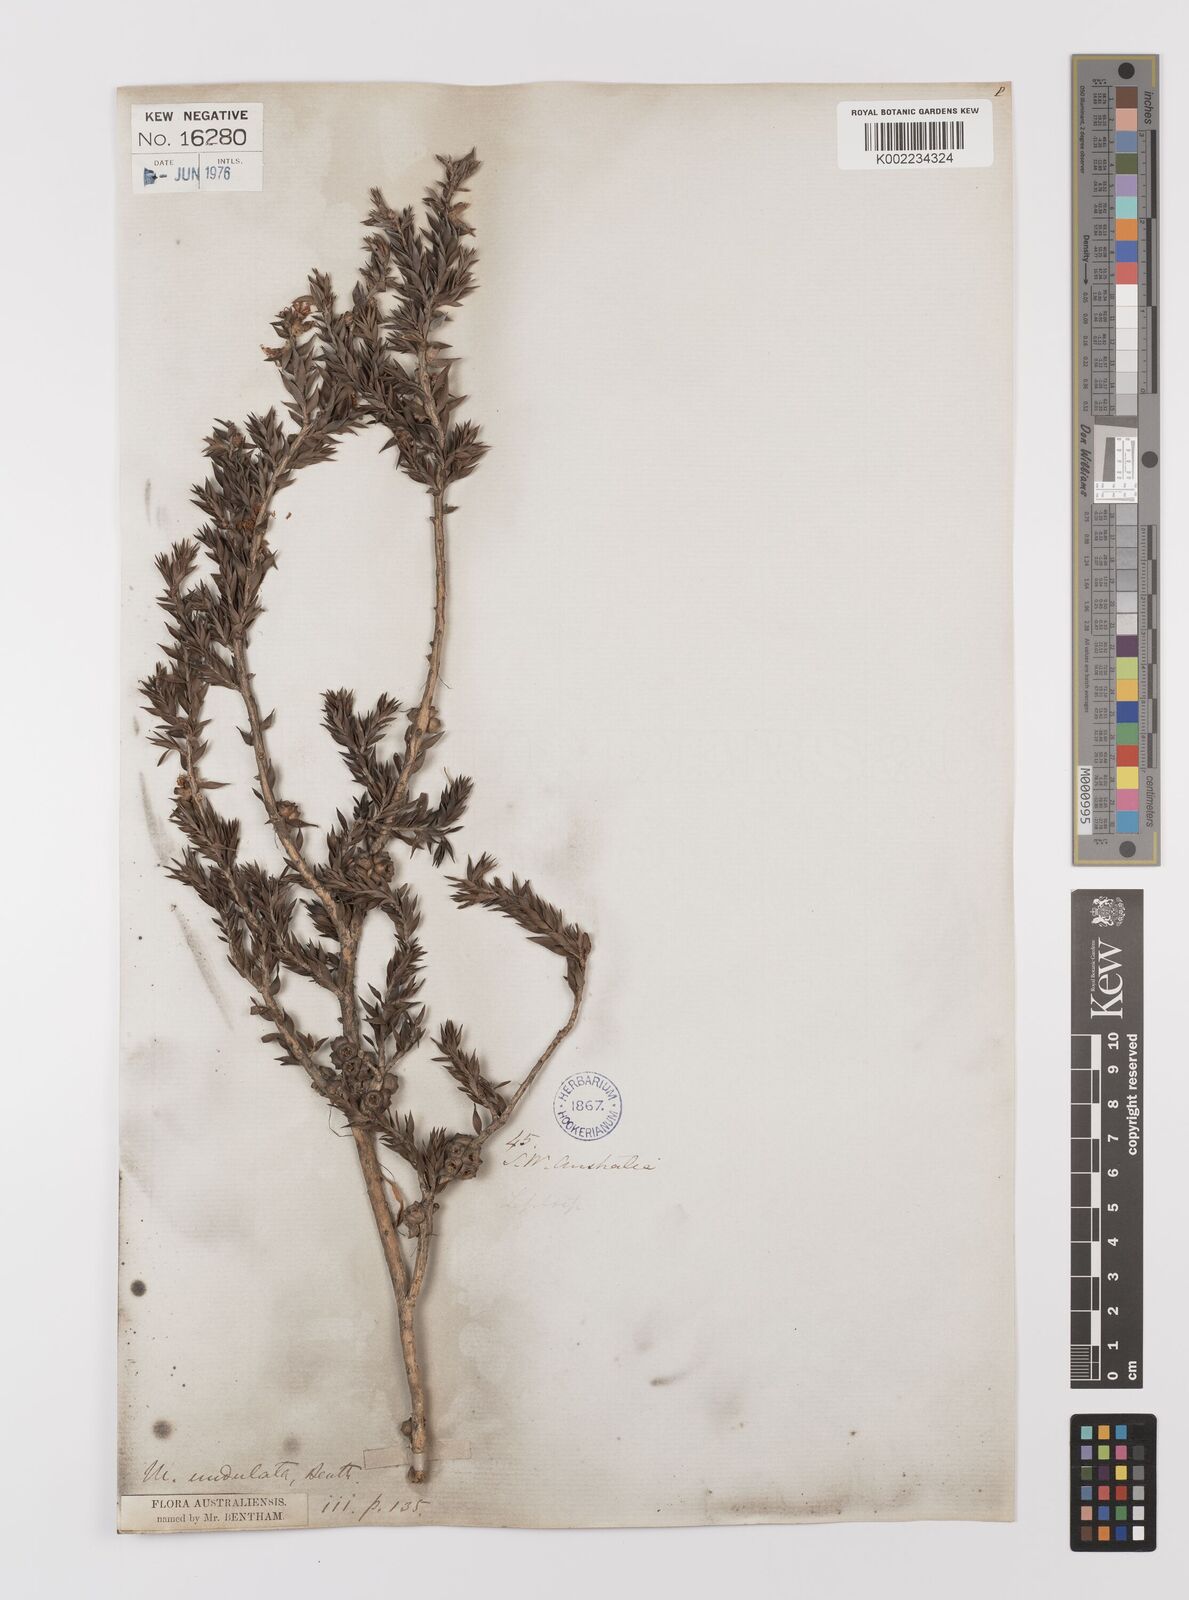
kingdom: Plantae
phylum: Tracheophyta
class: Magnoliopsida
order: Myrtales
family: Myrtaceae
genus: Melaleuca
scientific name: Melaleuca undulata
